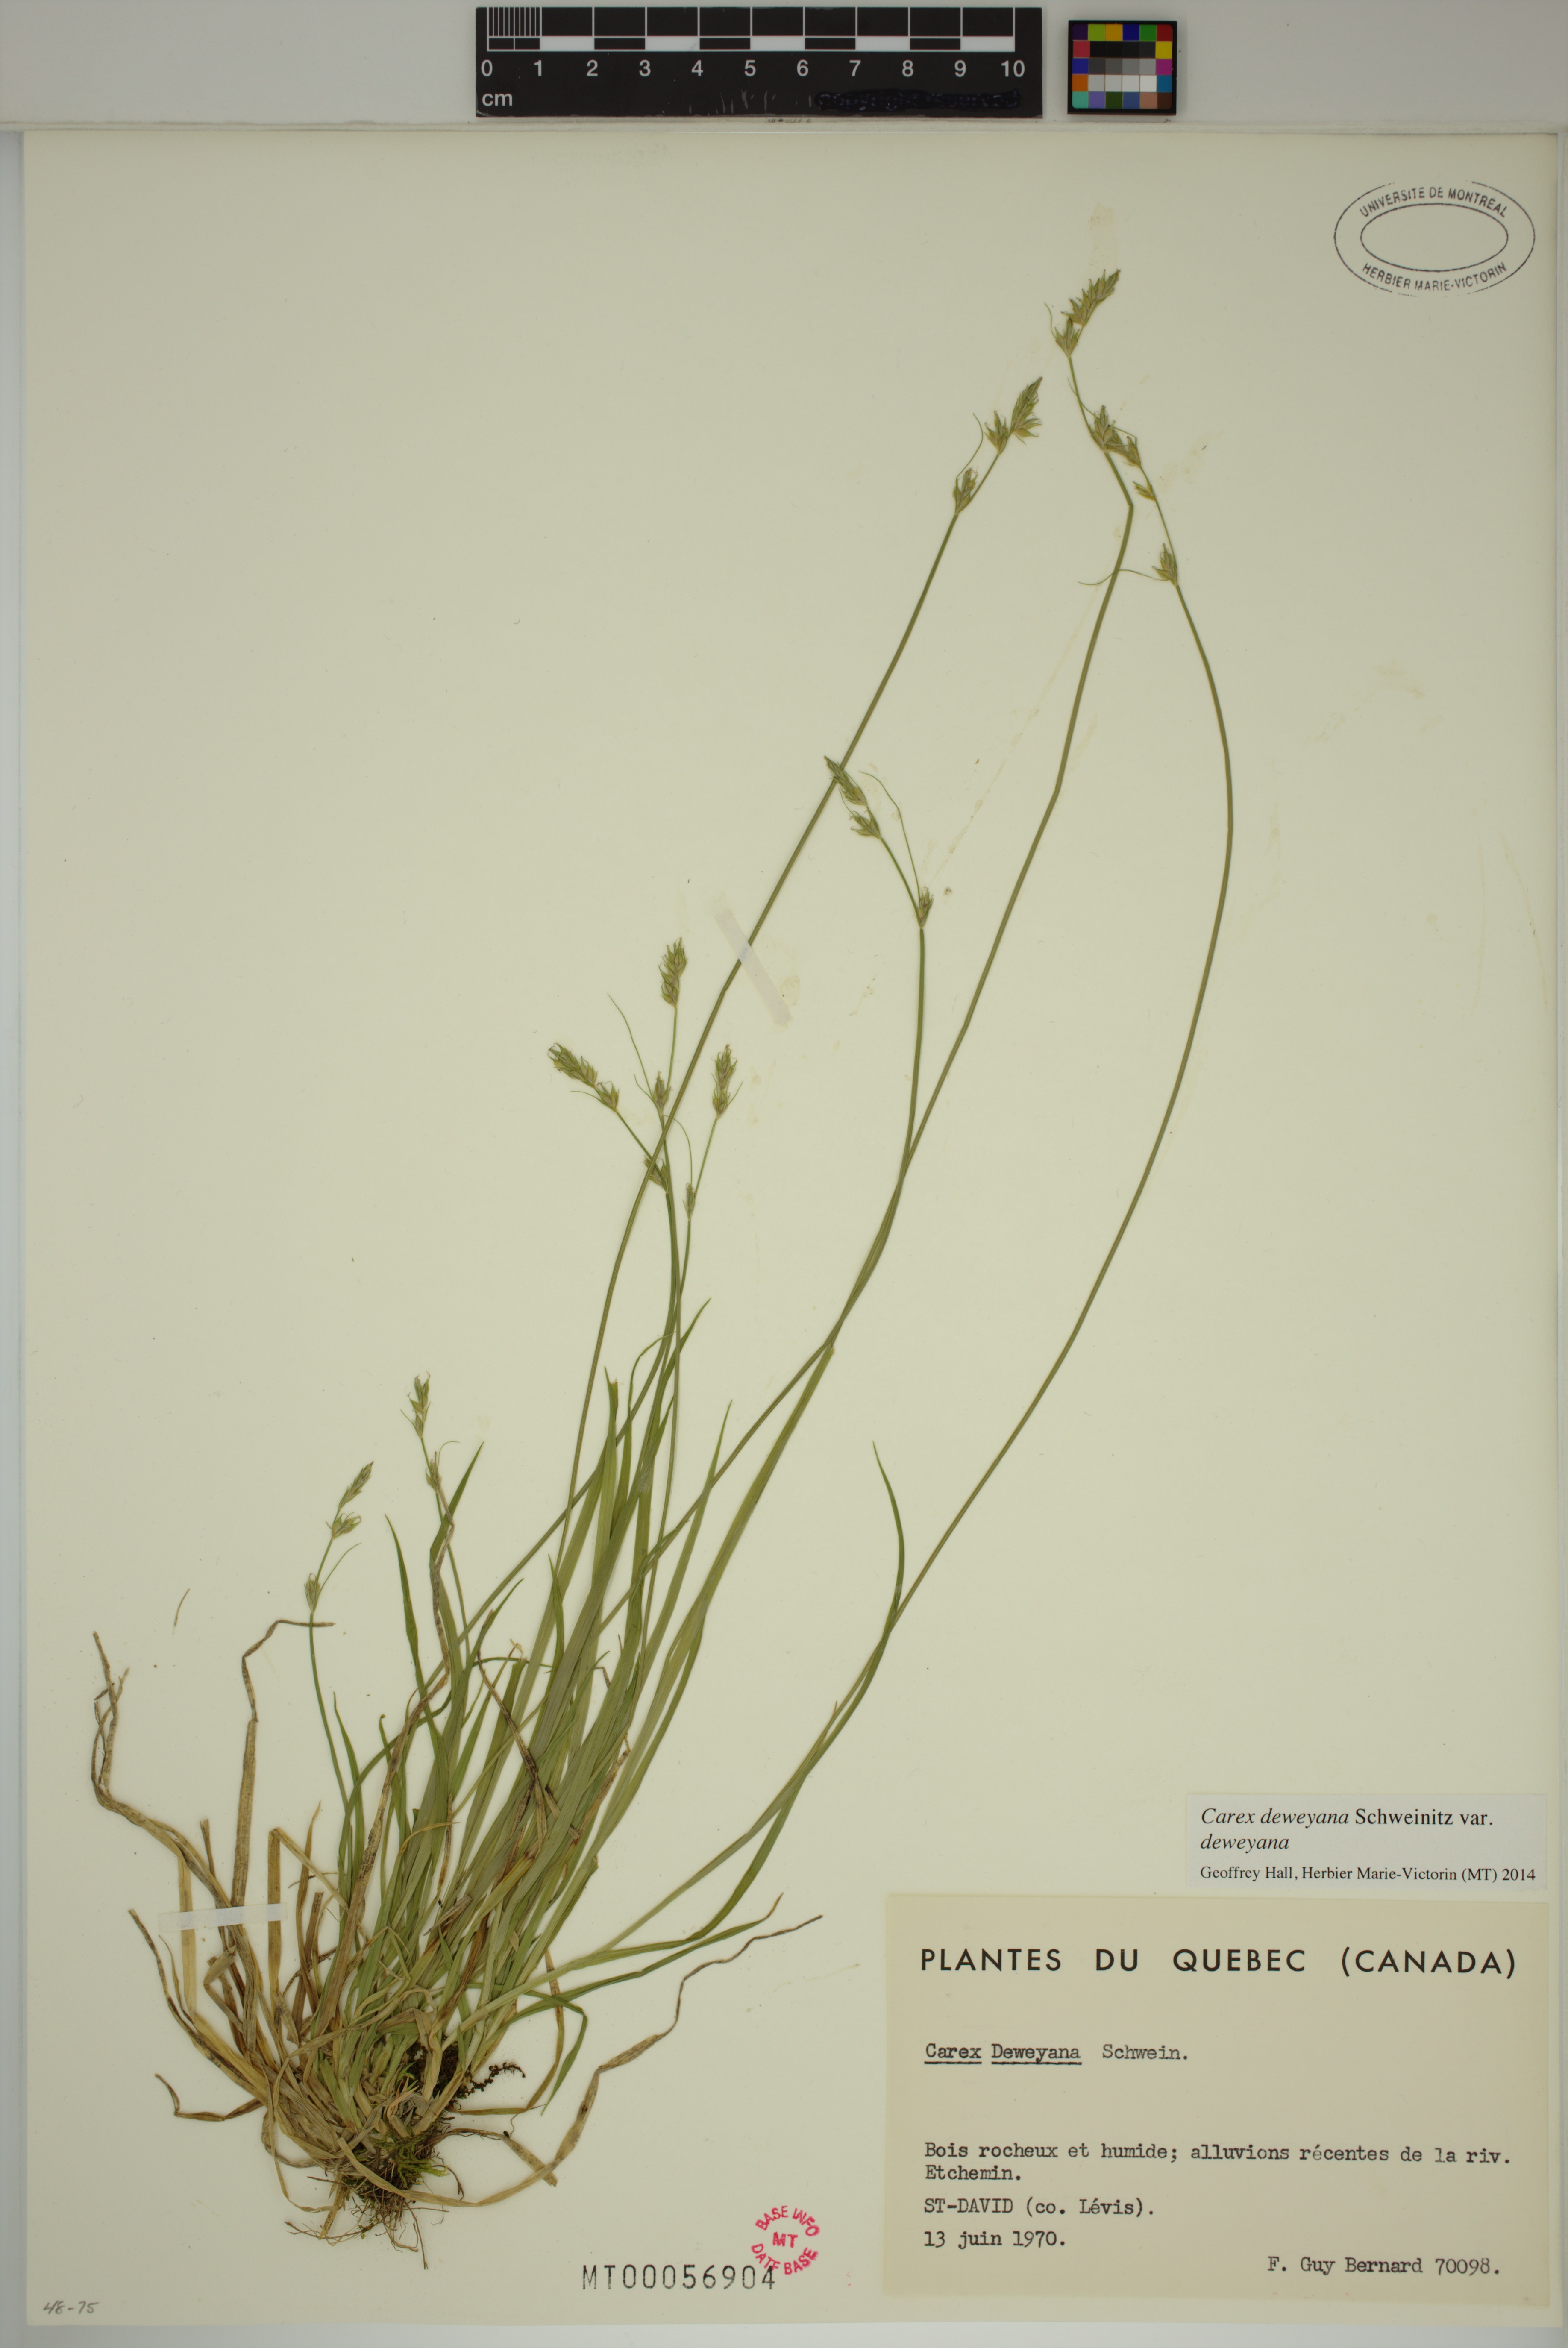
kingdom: Plantae
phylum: Tracheophyta
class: Liliopsida
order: Poales
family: Cyperaceae
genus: Carex
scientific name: Carex deweyana
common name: Dewey's sedge
